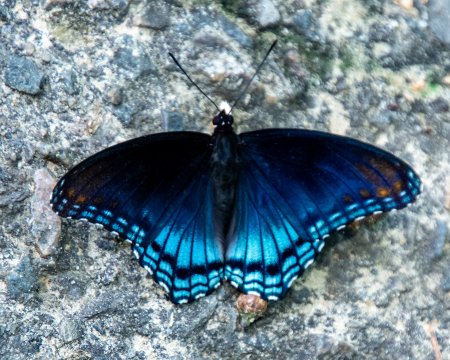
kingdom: Animalia
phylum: Arthropoda
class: Insecta
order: Lepidoptera
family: Nymphalidae
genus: Limenitis
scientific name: Limenitis arthemis
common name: Red-spotted Admiral
